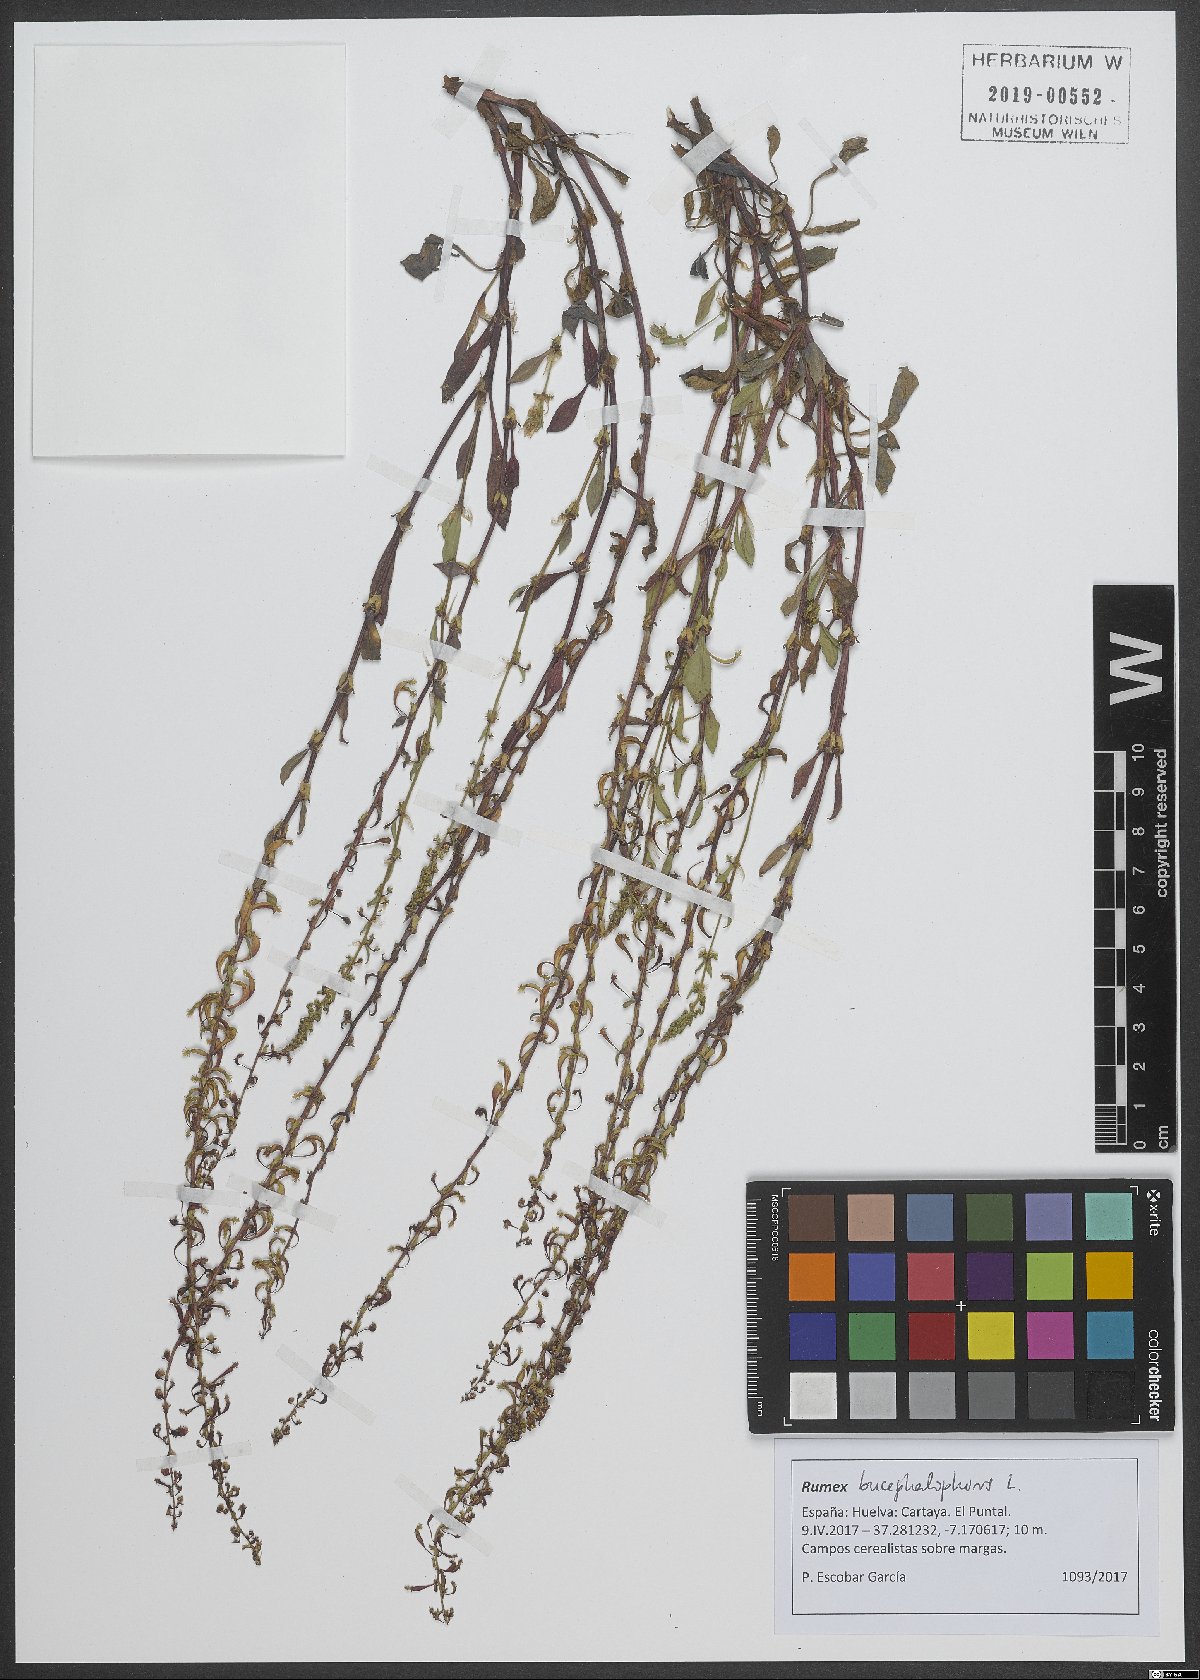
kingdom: Plantae
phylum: Tracheophyta
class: Magnoliopsida
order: Caryophyllales
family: Polygonaceae
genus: Rumex
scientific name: Rumex bucephalophorus
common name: Red dock
